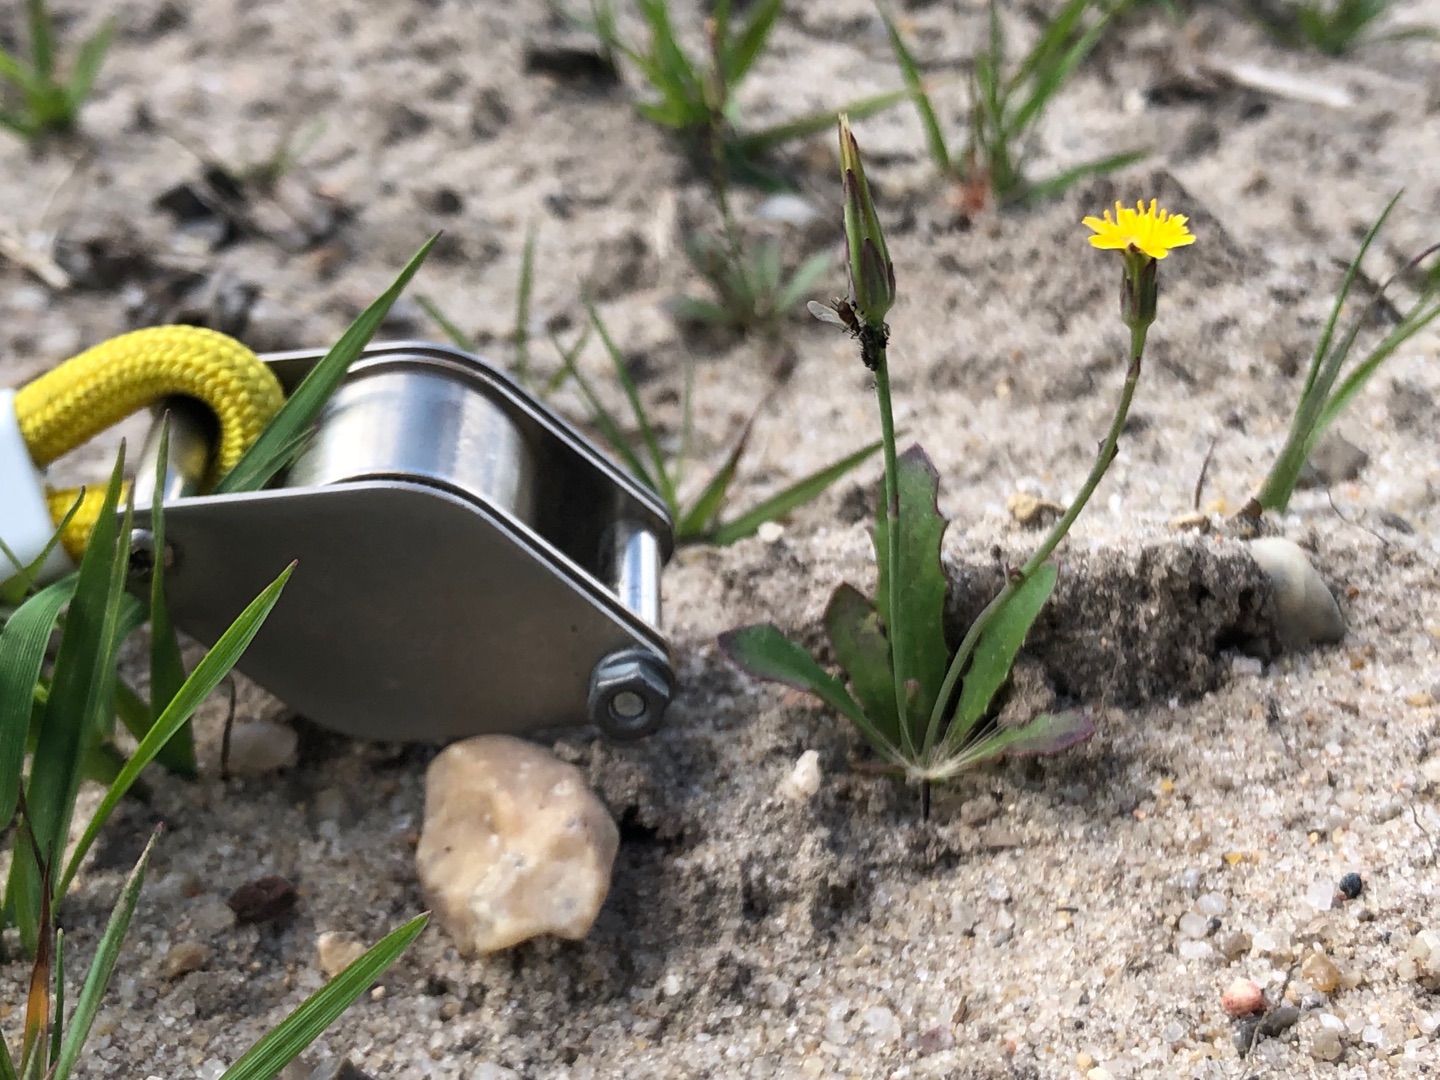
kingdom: Plantae
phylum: Tracheophyta
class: Magnoliopsida
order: Asterales
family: Asteraceae
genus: Hypochaeris
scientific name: Hypochaeris glabra
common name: Glat kongepen
